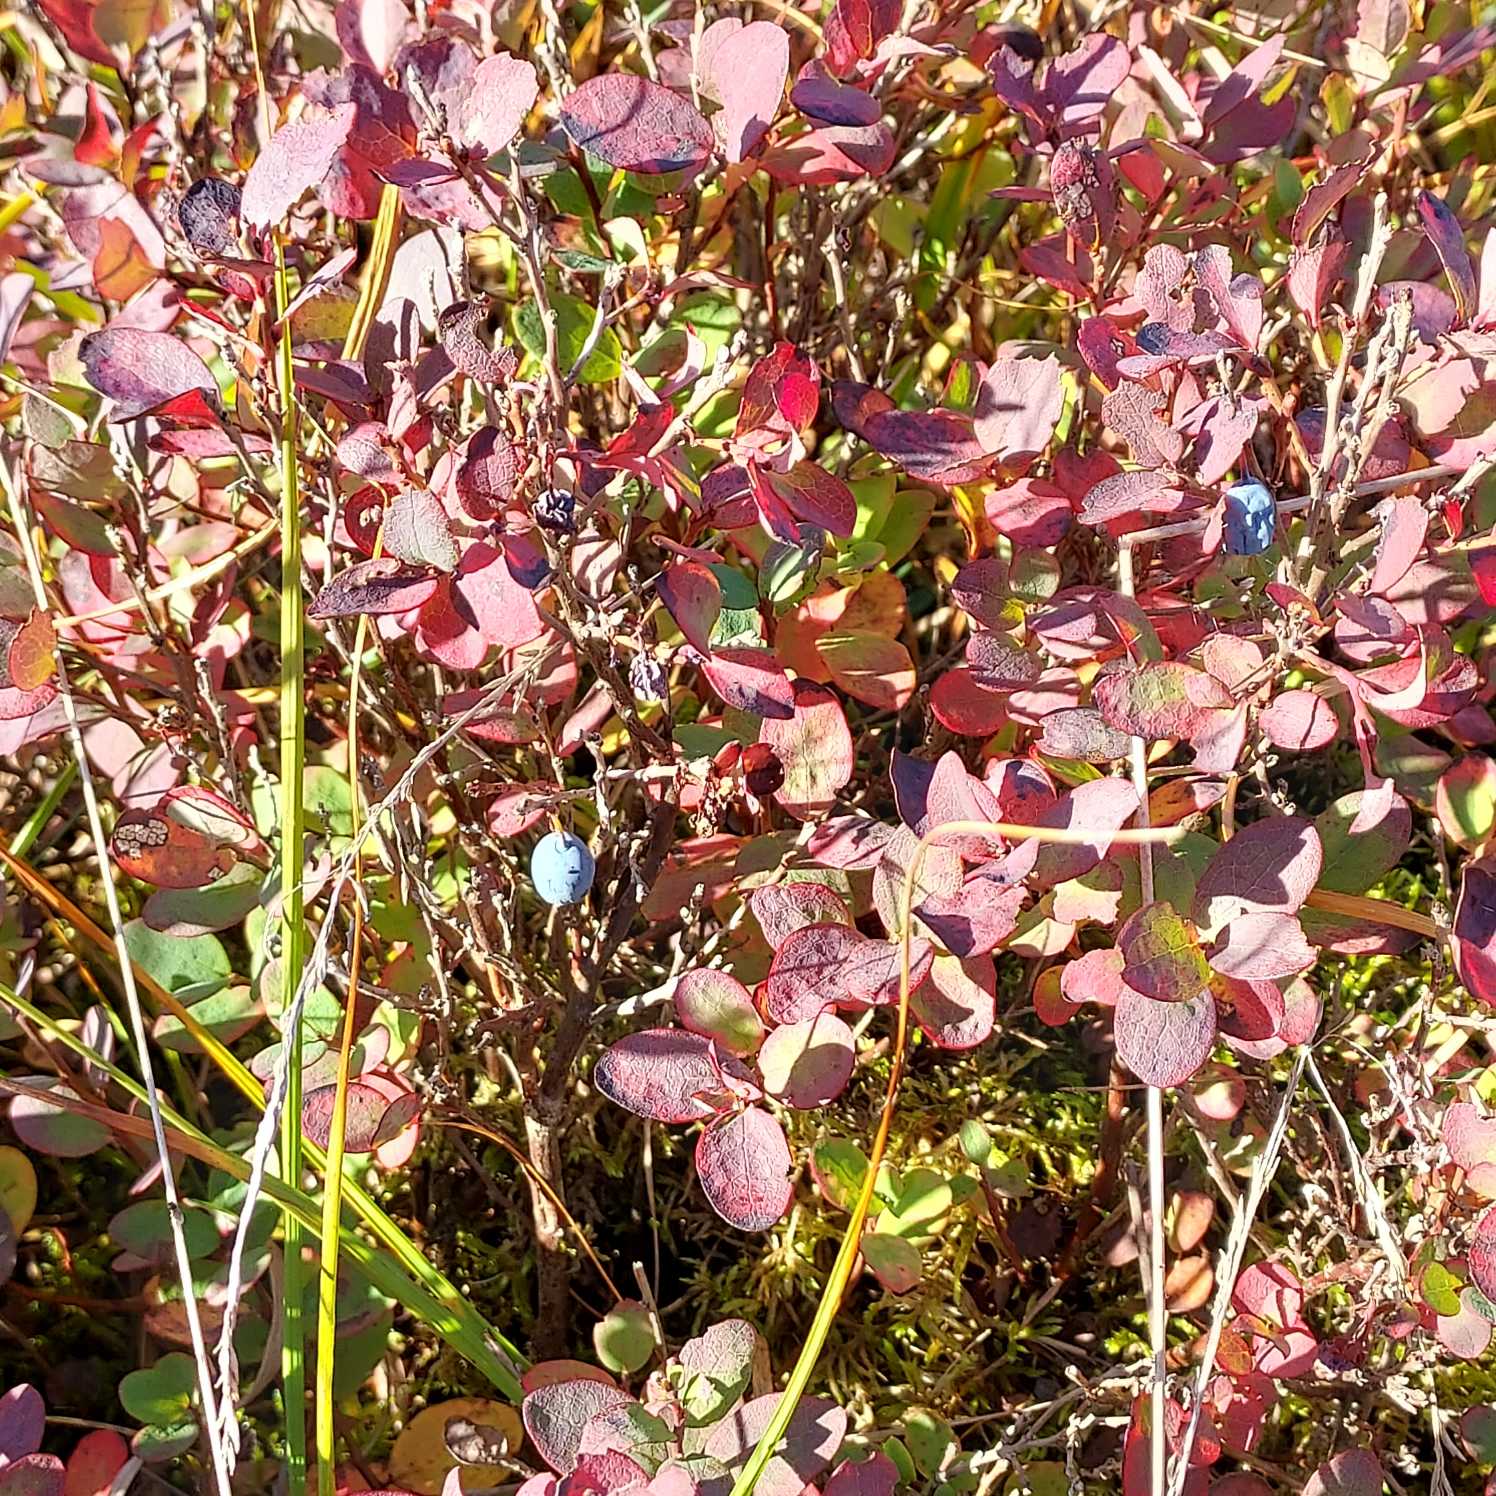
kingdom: Plantae
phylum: Tracheophyta
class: Magnoliopsida
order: Ericales
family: Ericaceae
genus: Vaccinium
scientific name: Vaccinium uliginosum
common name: Mose-bølle
